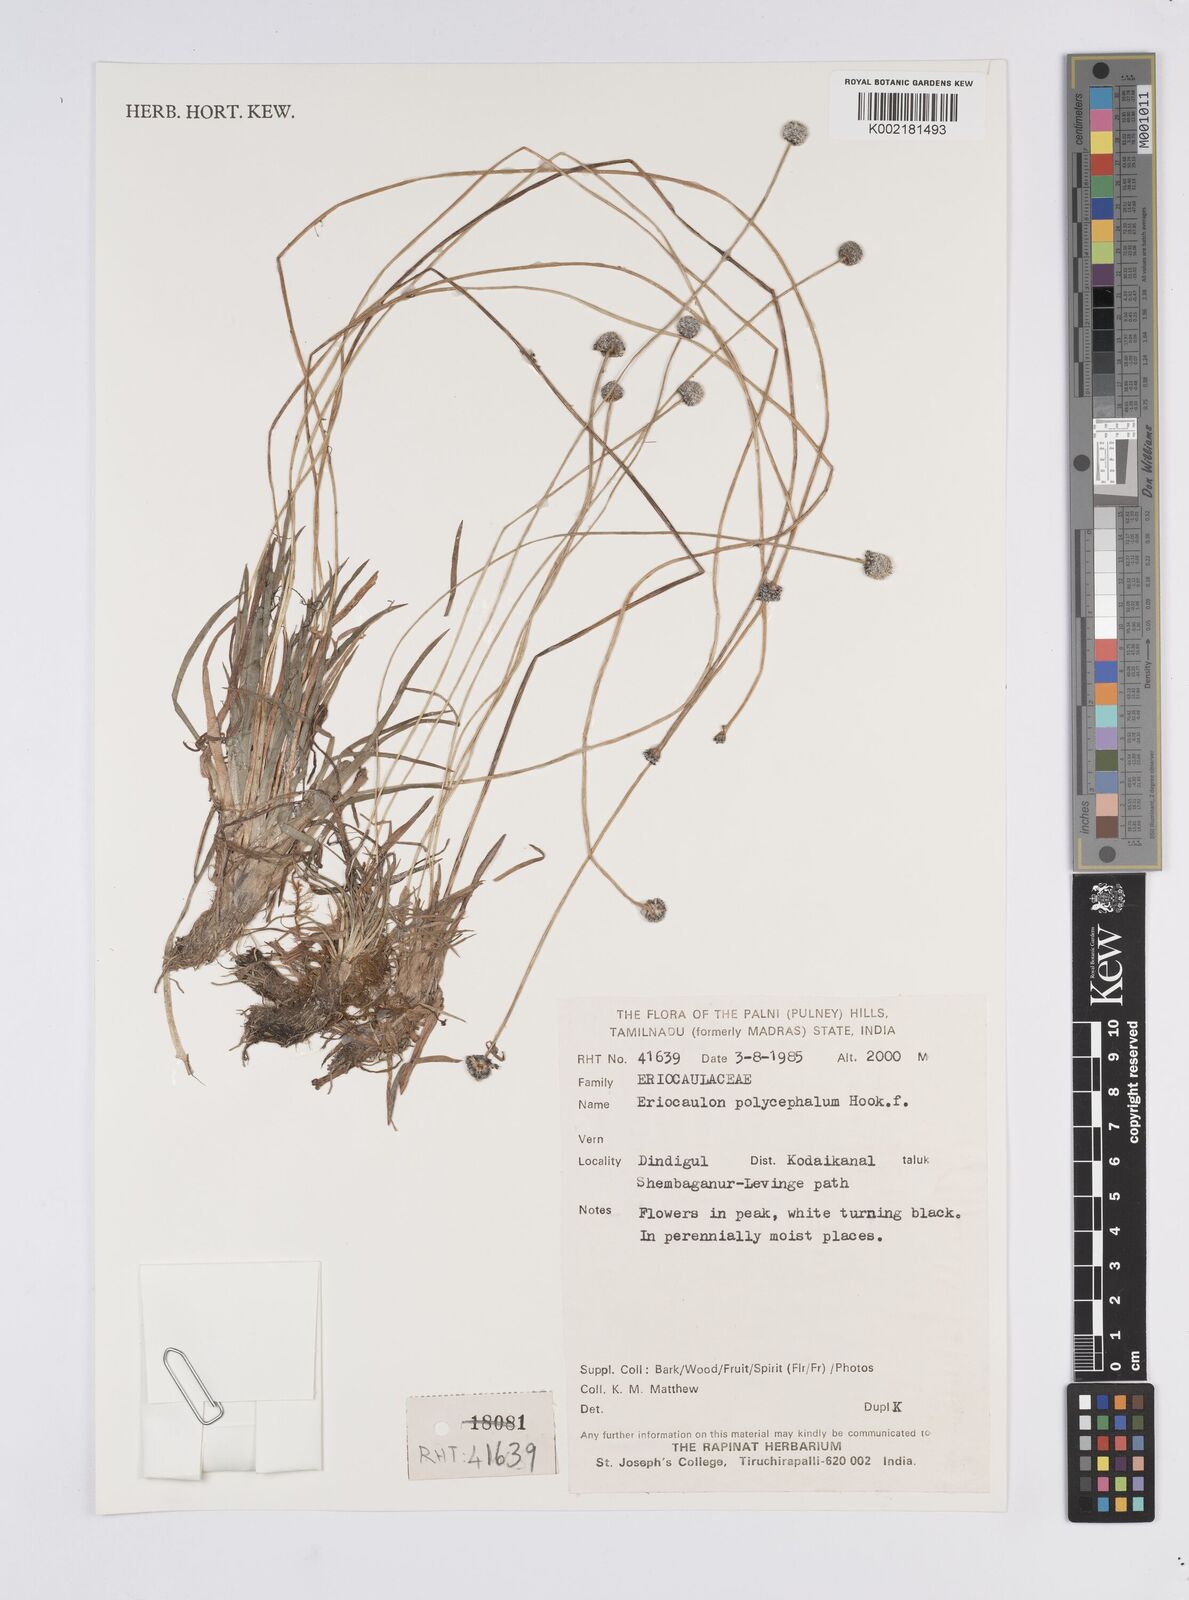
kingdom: Plantae
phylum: Tracheophyta
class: Liliopsida
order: Poales
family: Eriocaulaceae
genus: Eriocaulon
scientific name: Eriocaulon longicuspe
